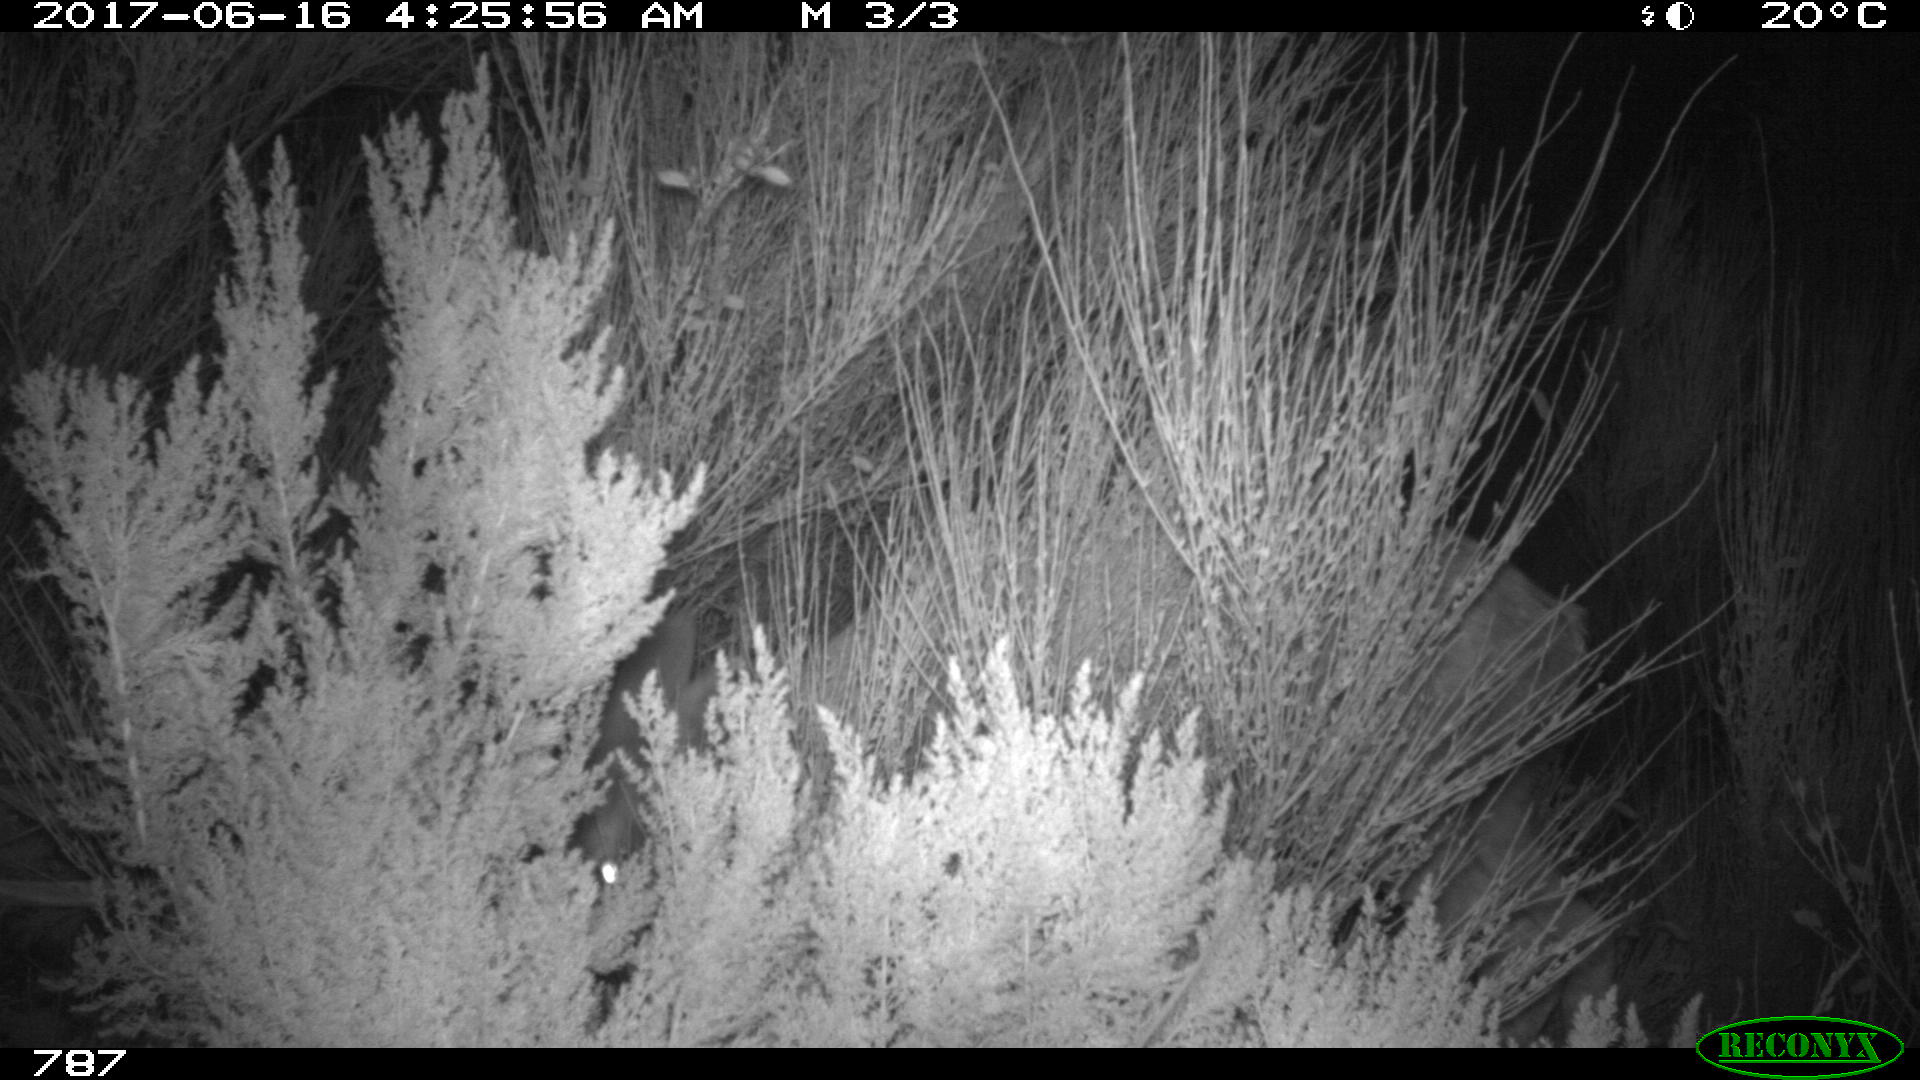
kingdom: Animalia
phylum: Chordata
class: Mammalia
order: Artiodactyla
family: Cervidae
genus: Capreolus
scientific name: Capreolus capreolus
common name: Western roe deer
